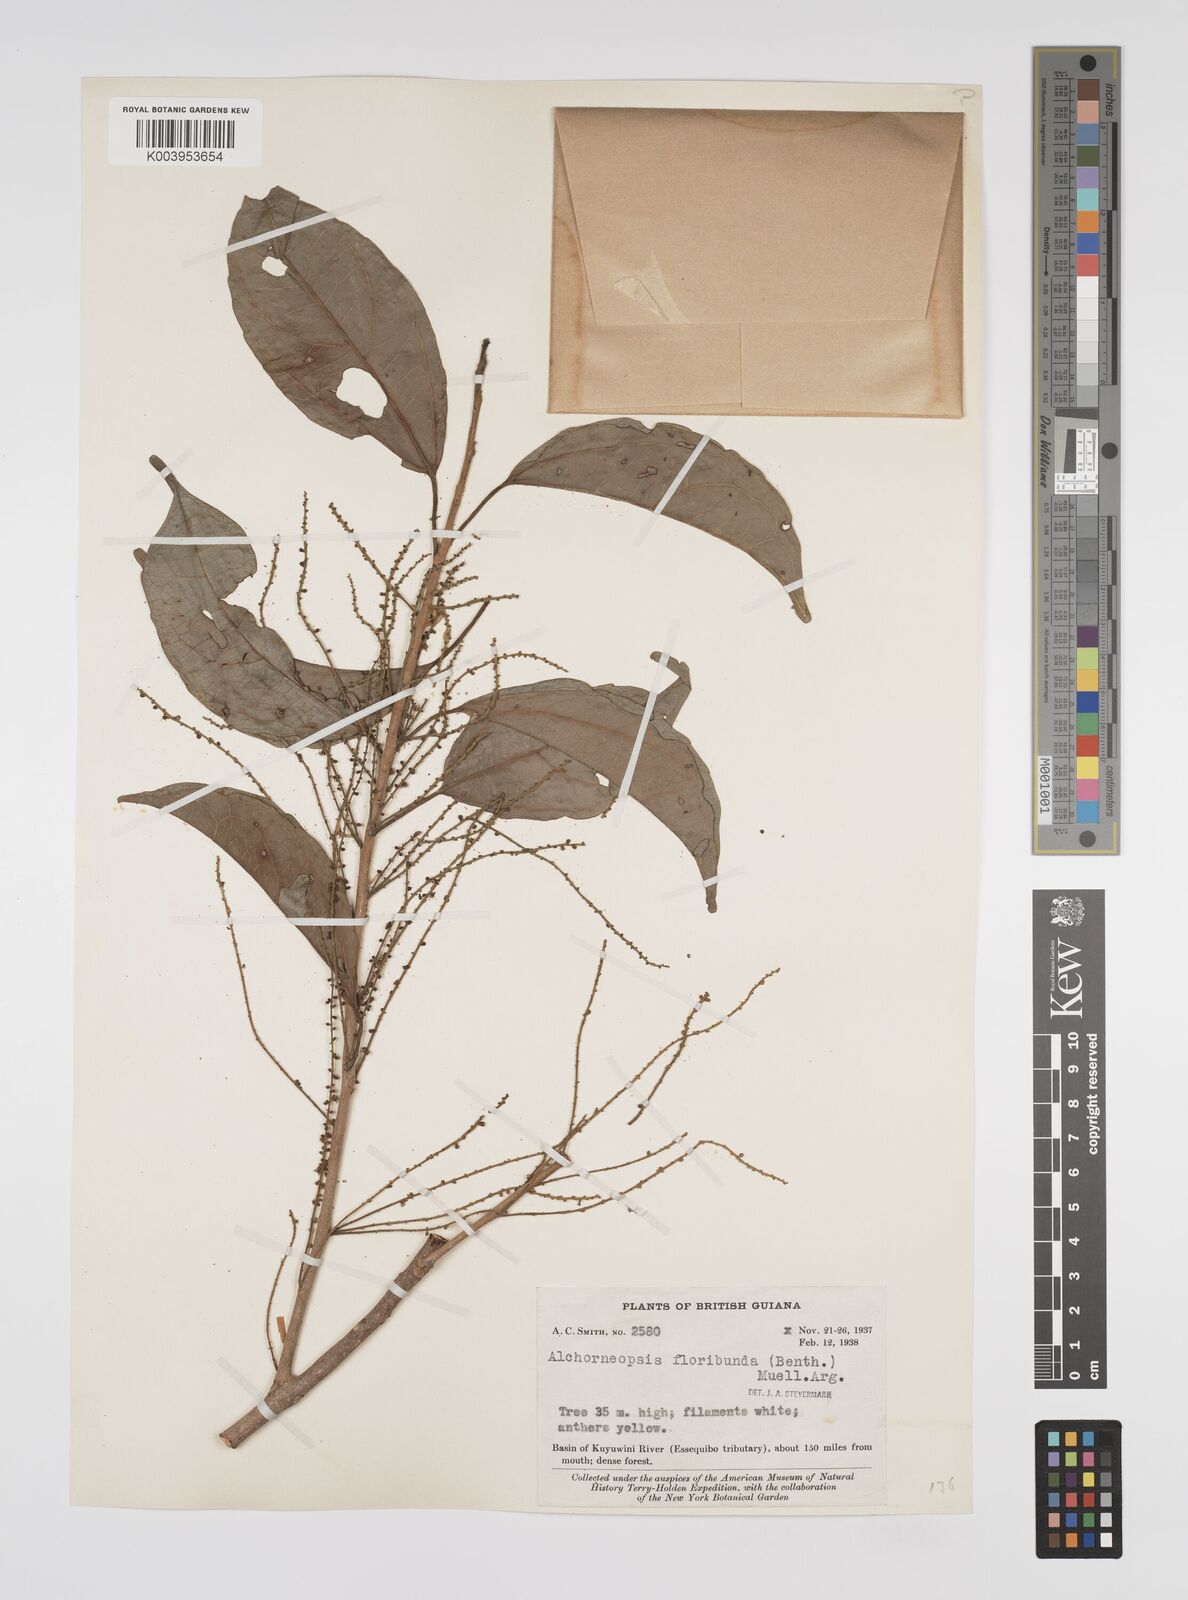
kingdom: Plantae
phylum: Tracheophyta
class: Magnoliopsida
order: Malpighiales
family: Euphorbiaceae
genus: Alchorneopsis
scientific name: Alchorneopsis floribunda
